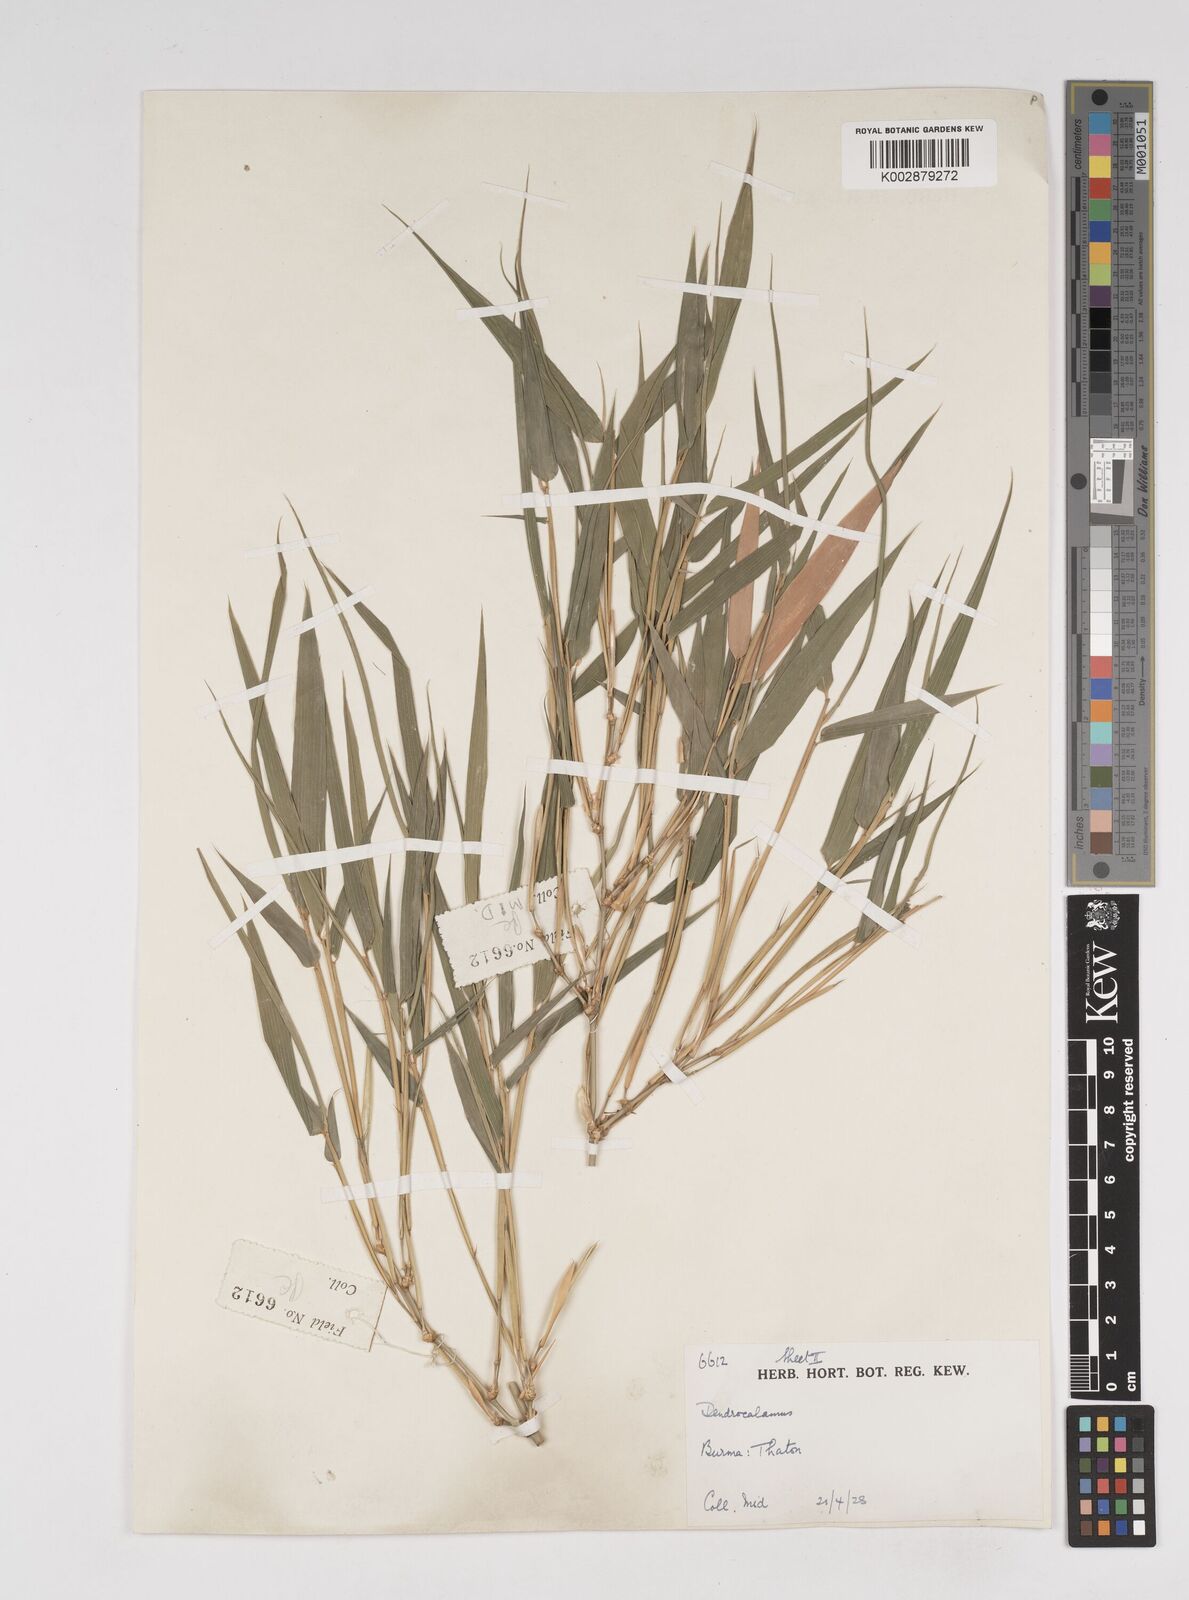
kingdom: Plantae
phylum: Tracheophyta
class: Liliopsida
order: Poales
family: Poaceae
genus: Dendrocalamus
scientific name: Dendrocalamus
